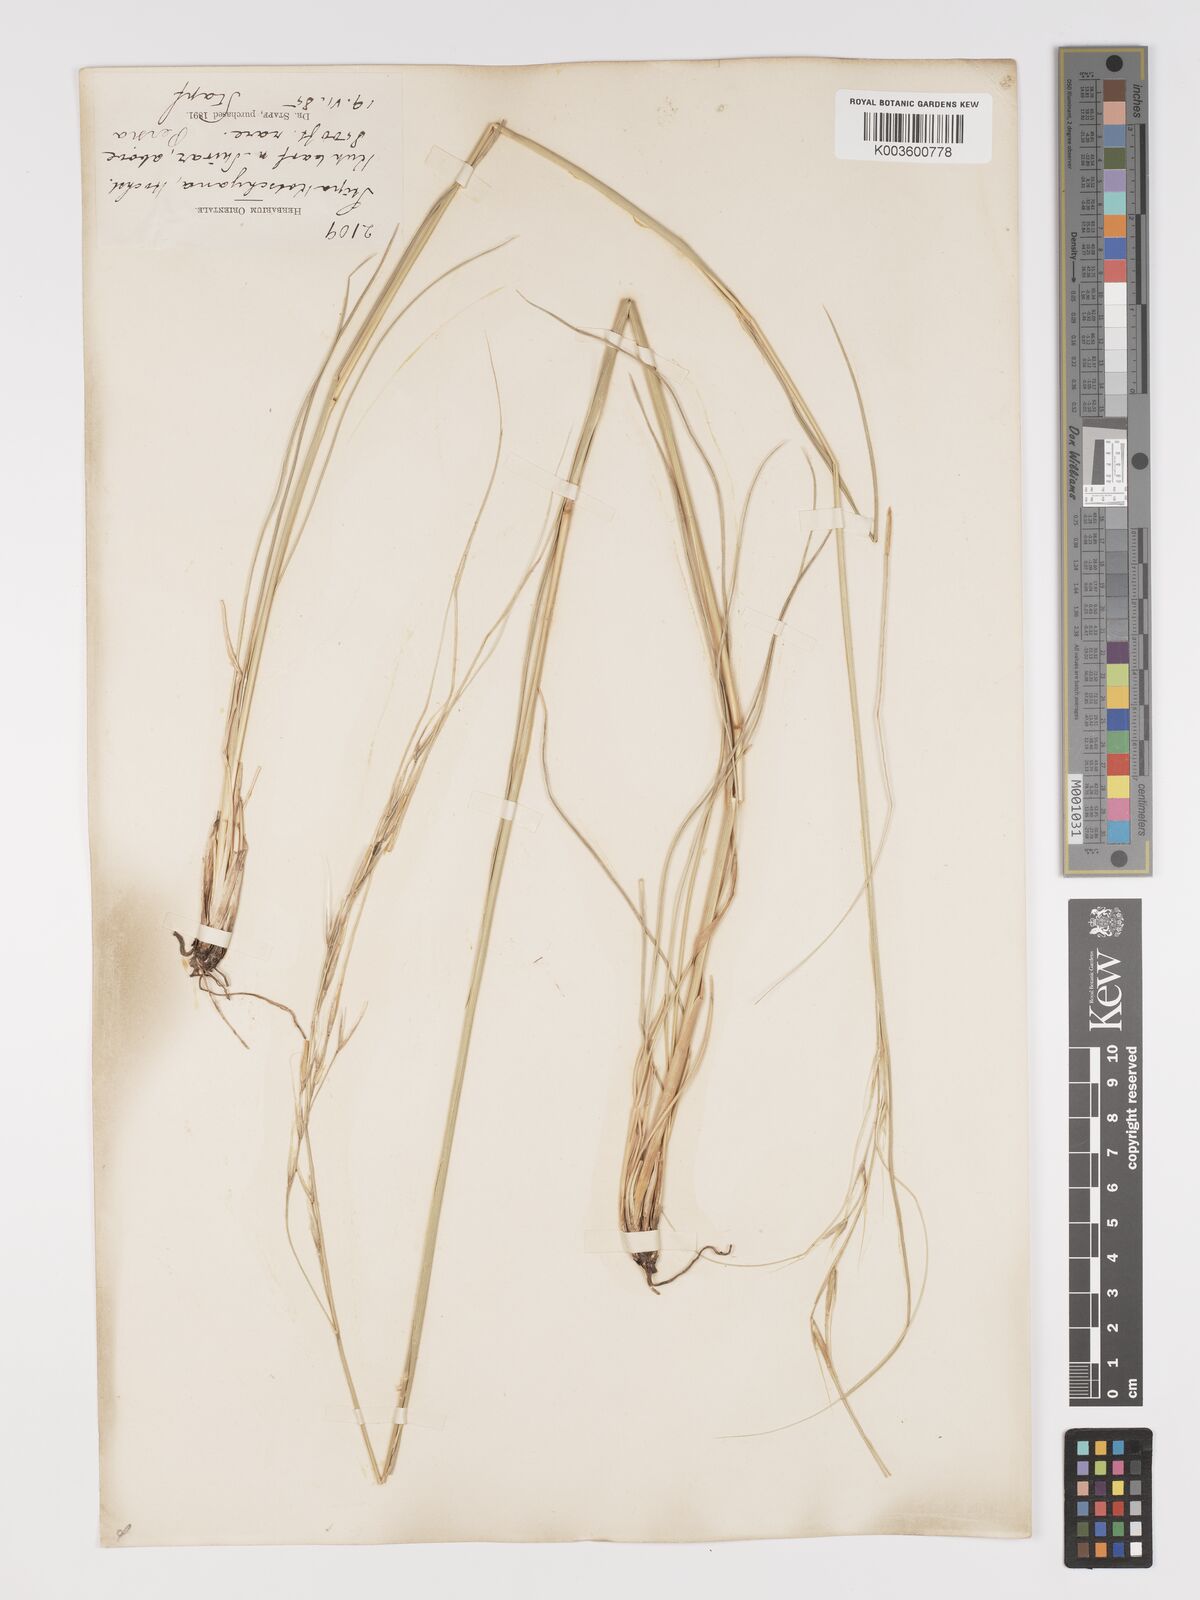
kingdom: Plantae
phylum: Tracheophyta
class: Liliopsida
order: Poales
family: Poaceae
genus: Stipa
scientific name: Stipa lagascae
